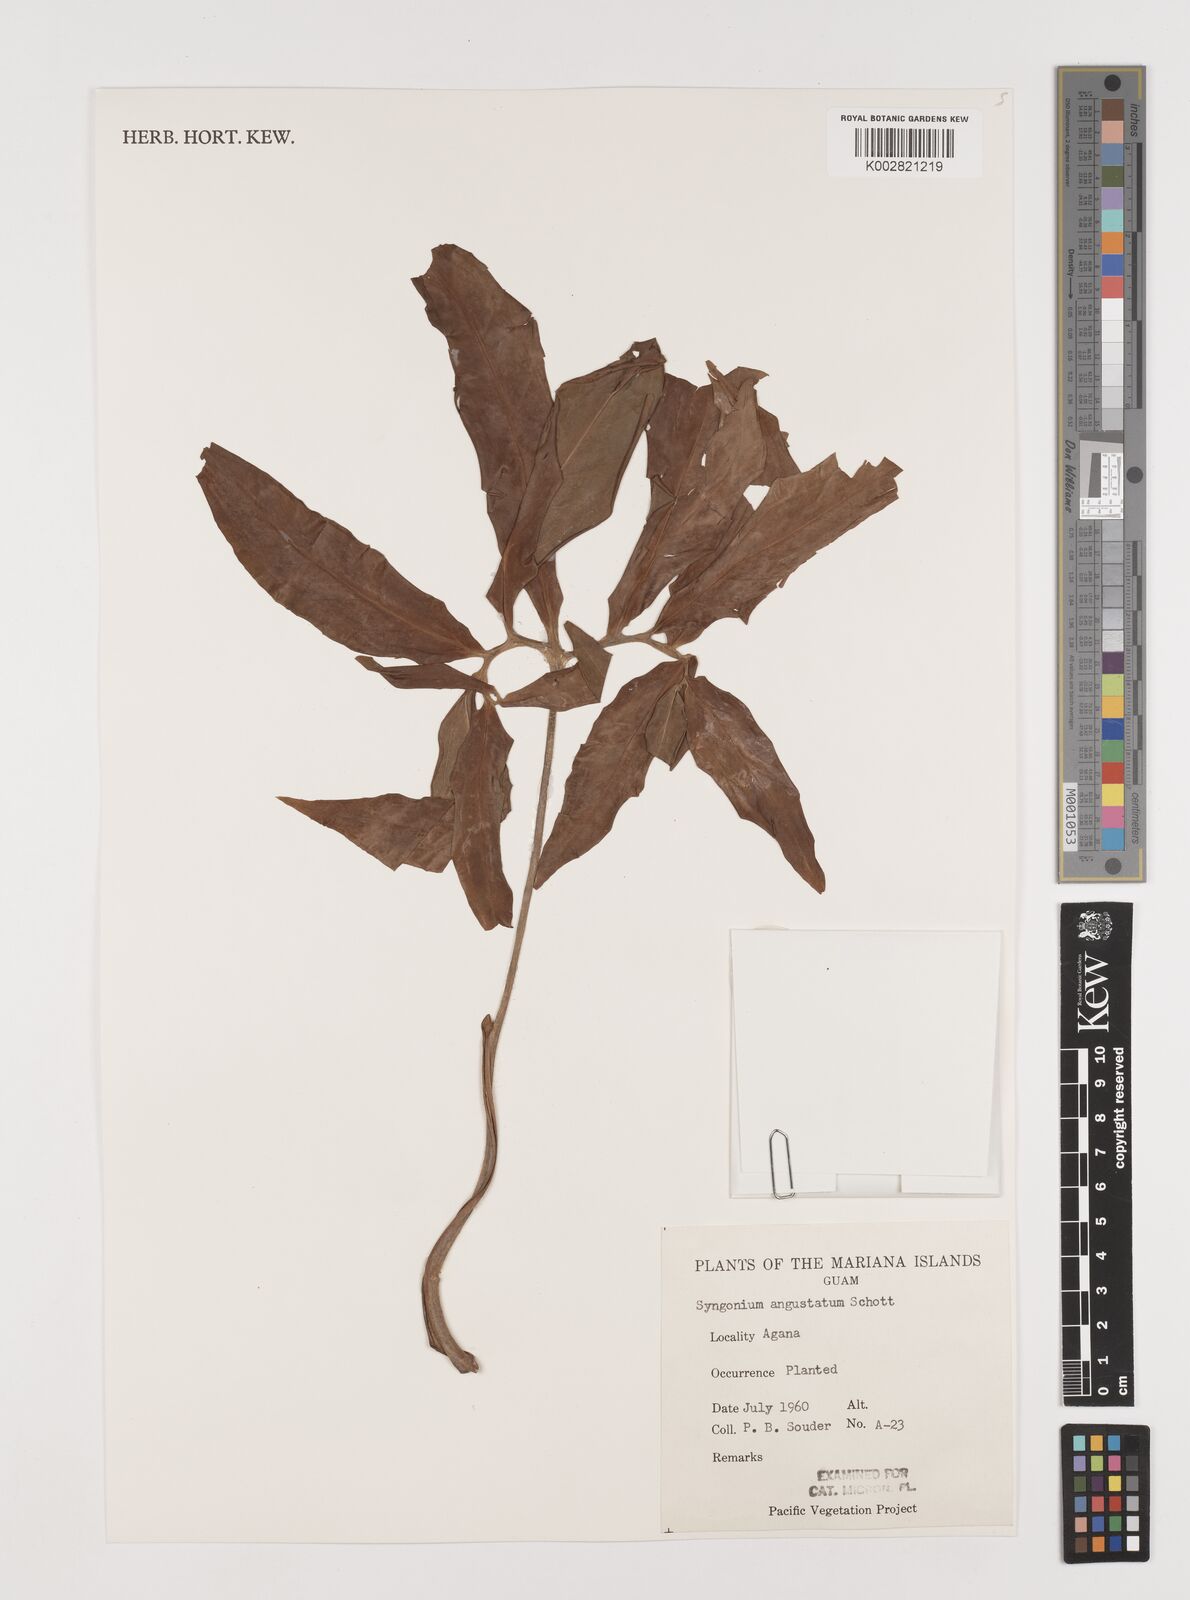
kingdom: Plantae
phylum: Tracheophyta
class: Liliopsida
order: Alismatales
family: Araceae
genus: Syngonium
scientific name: Syngonium angustatum
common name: Fivefingers
